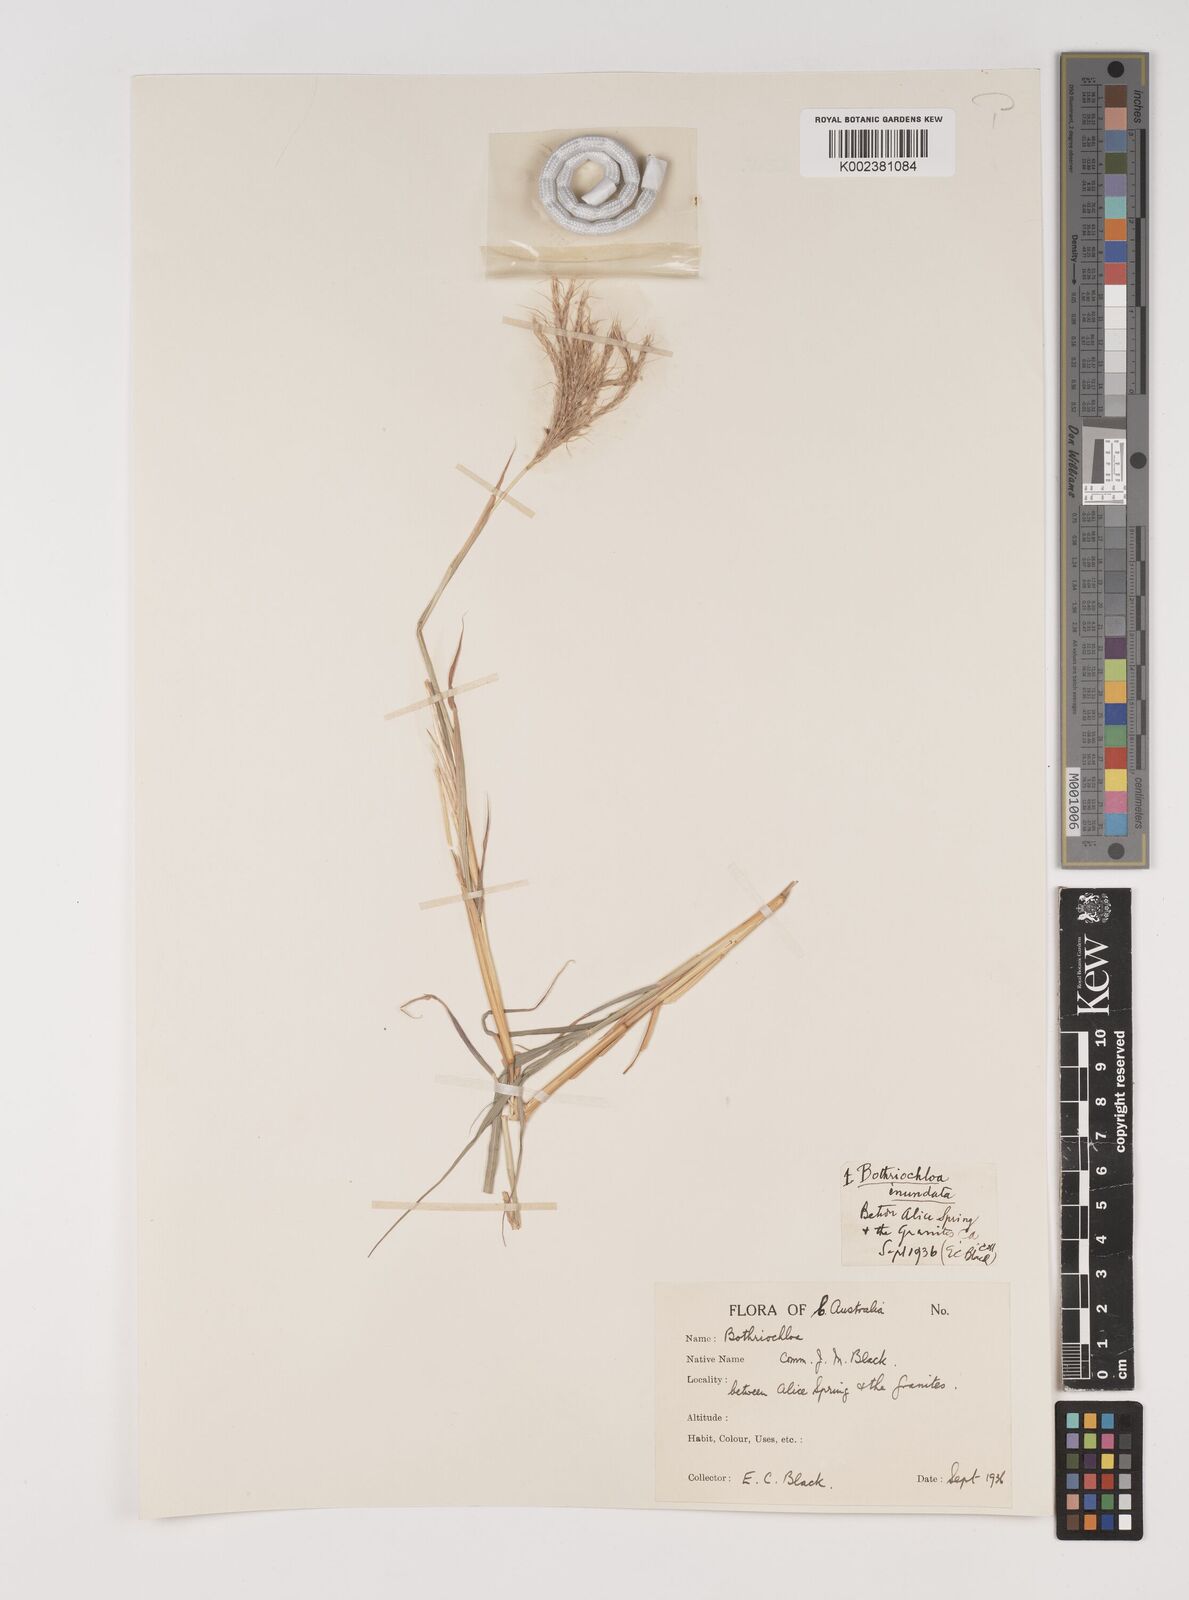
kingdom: Plantae
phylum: Tracheophyta
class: Liliopsida
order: Poales
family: Poaceae
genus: Bothriochloa
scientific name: Bothriochloa ewartiana
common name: Desert-bluegrass
